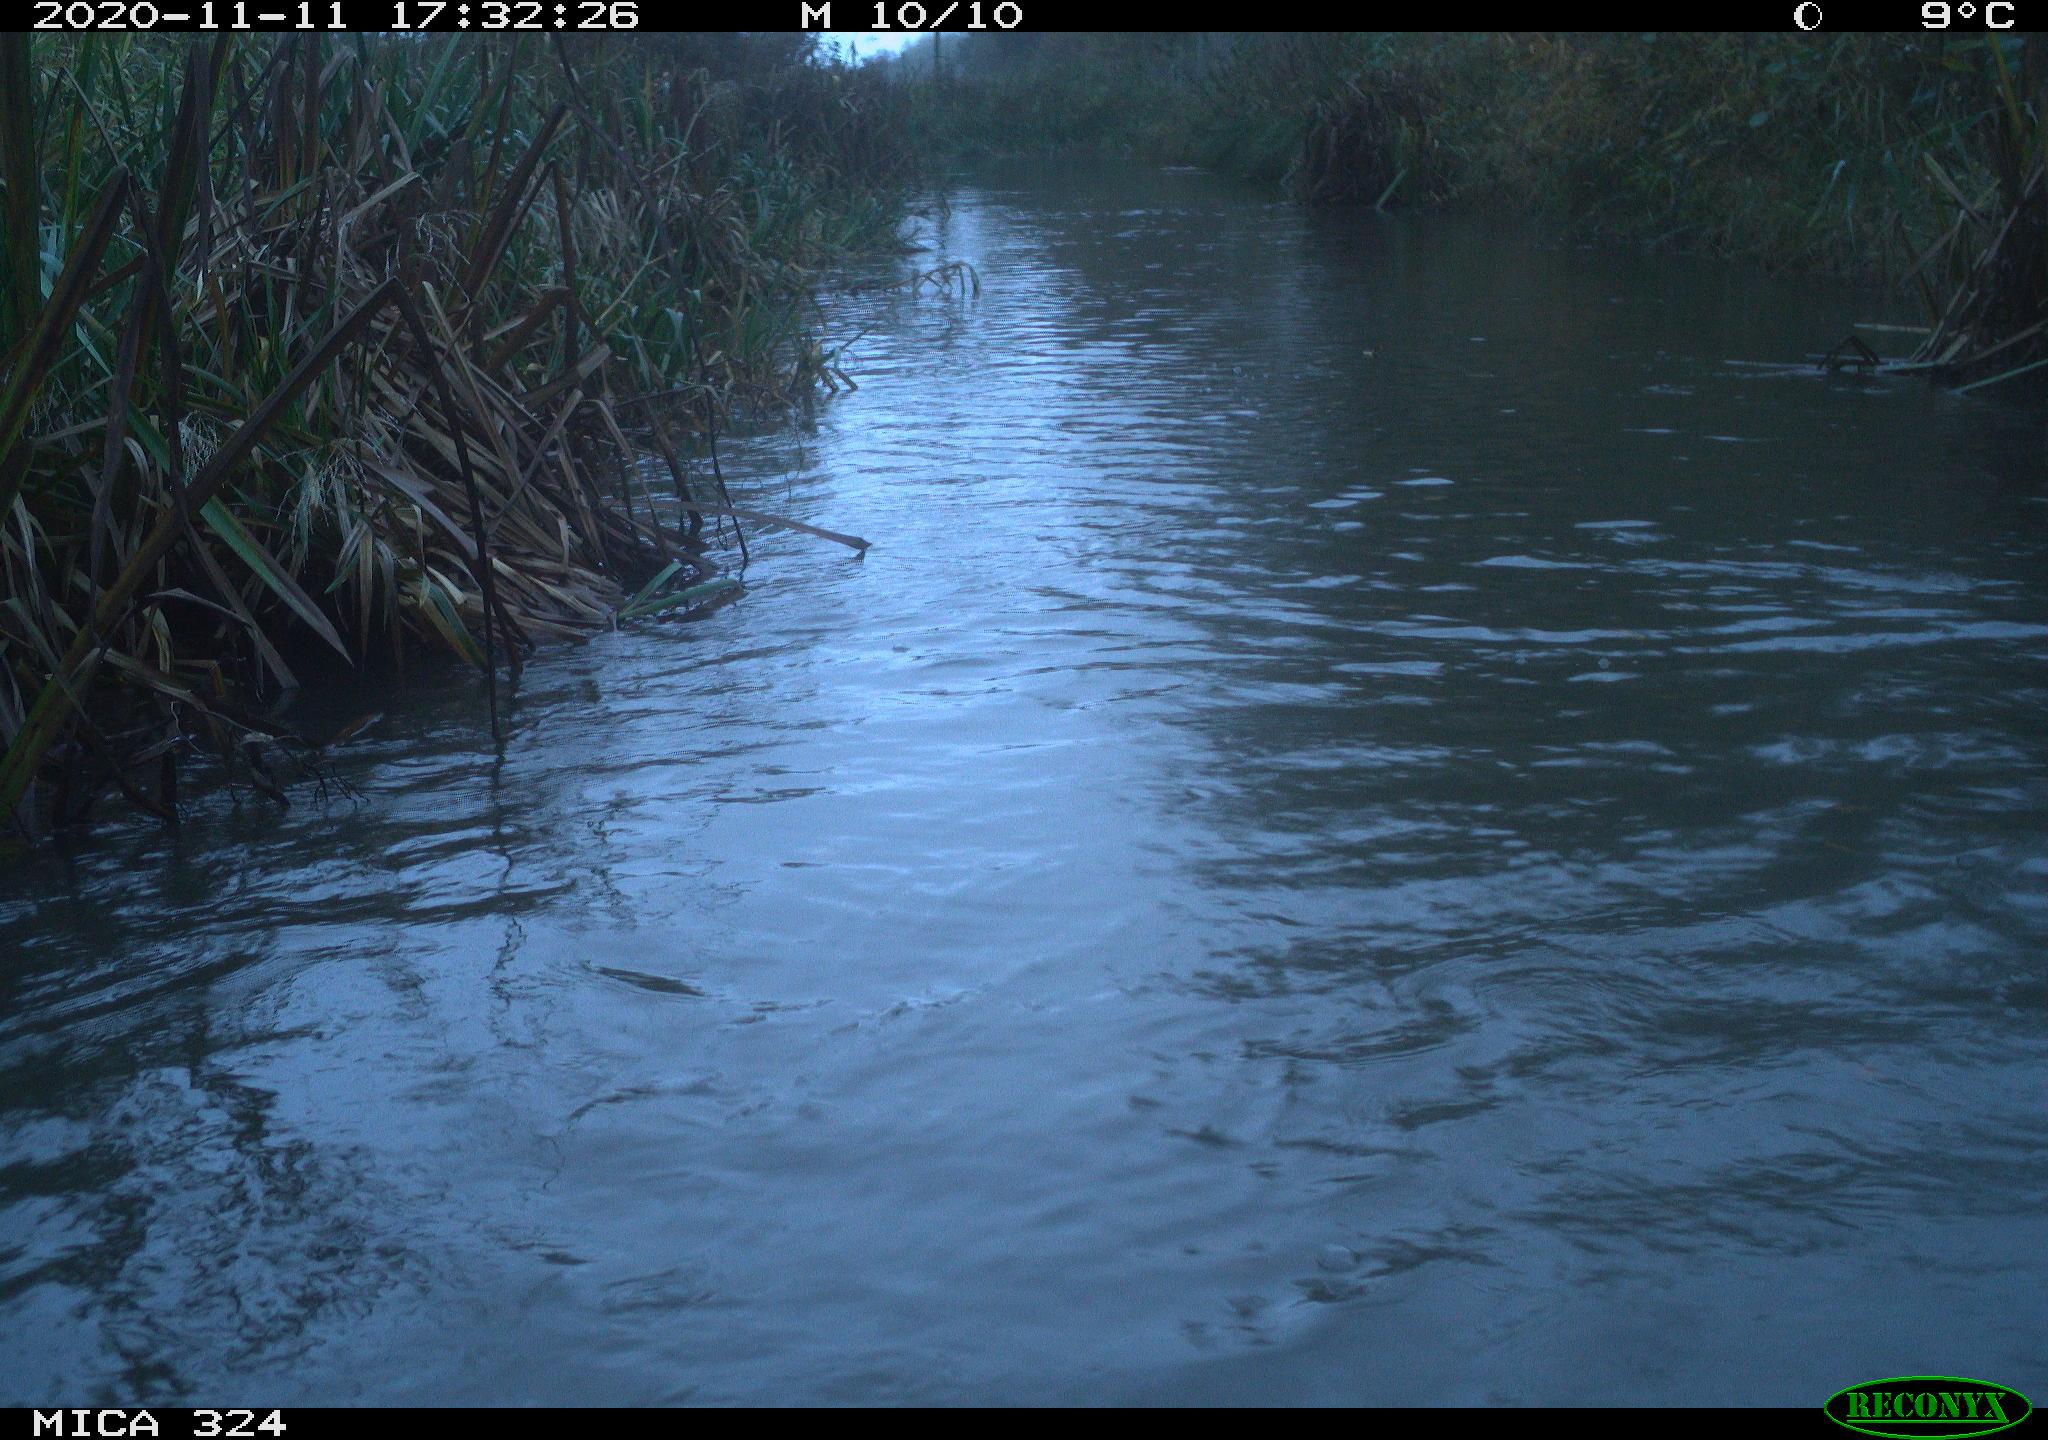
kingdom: Animalia
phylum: Chordata
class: Aves
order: Gruiformes
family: Rallidae
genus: Fulica
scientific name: Fulica atra
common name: Eurasian coot
